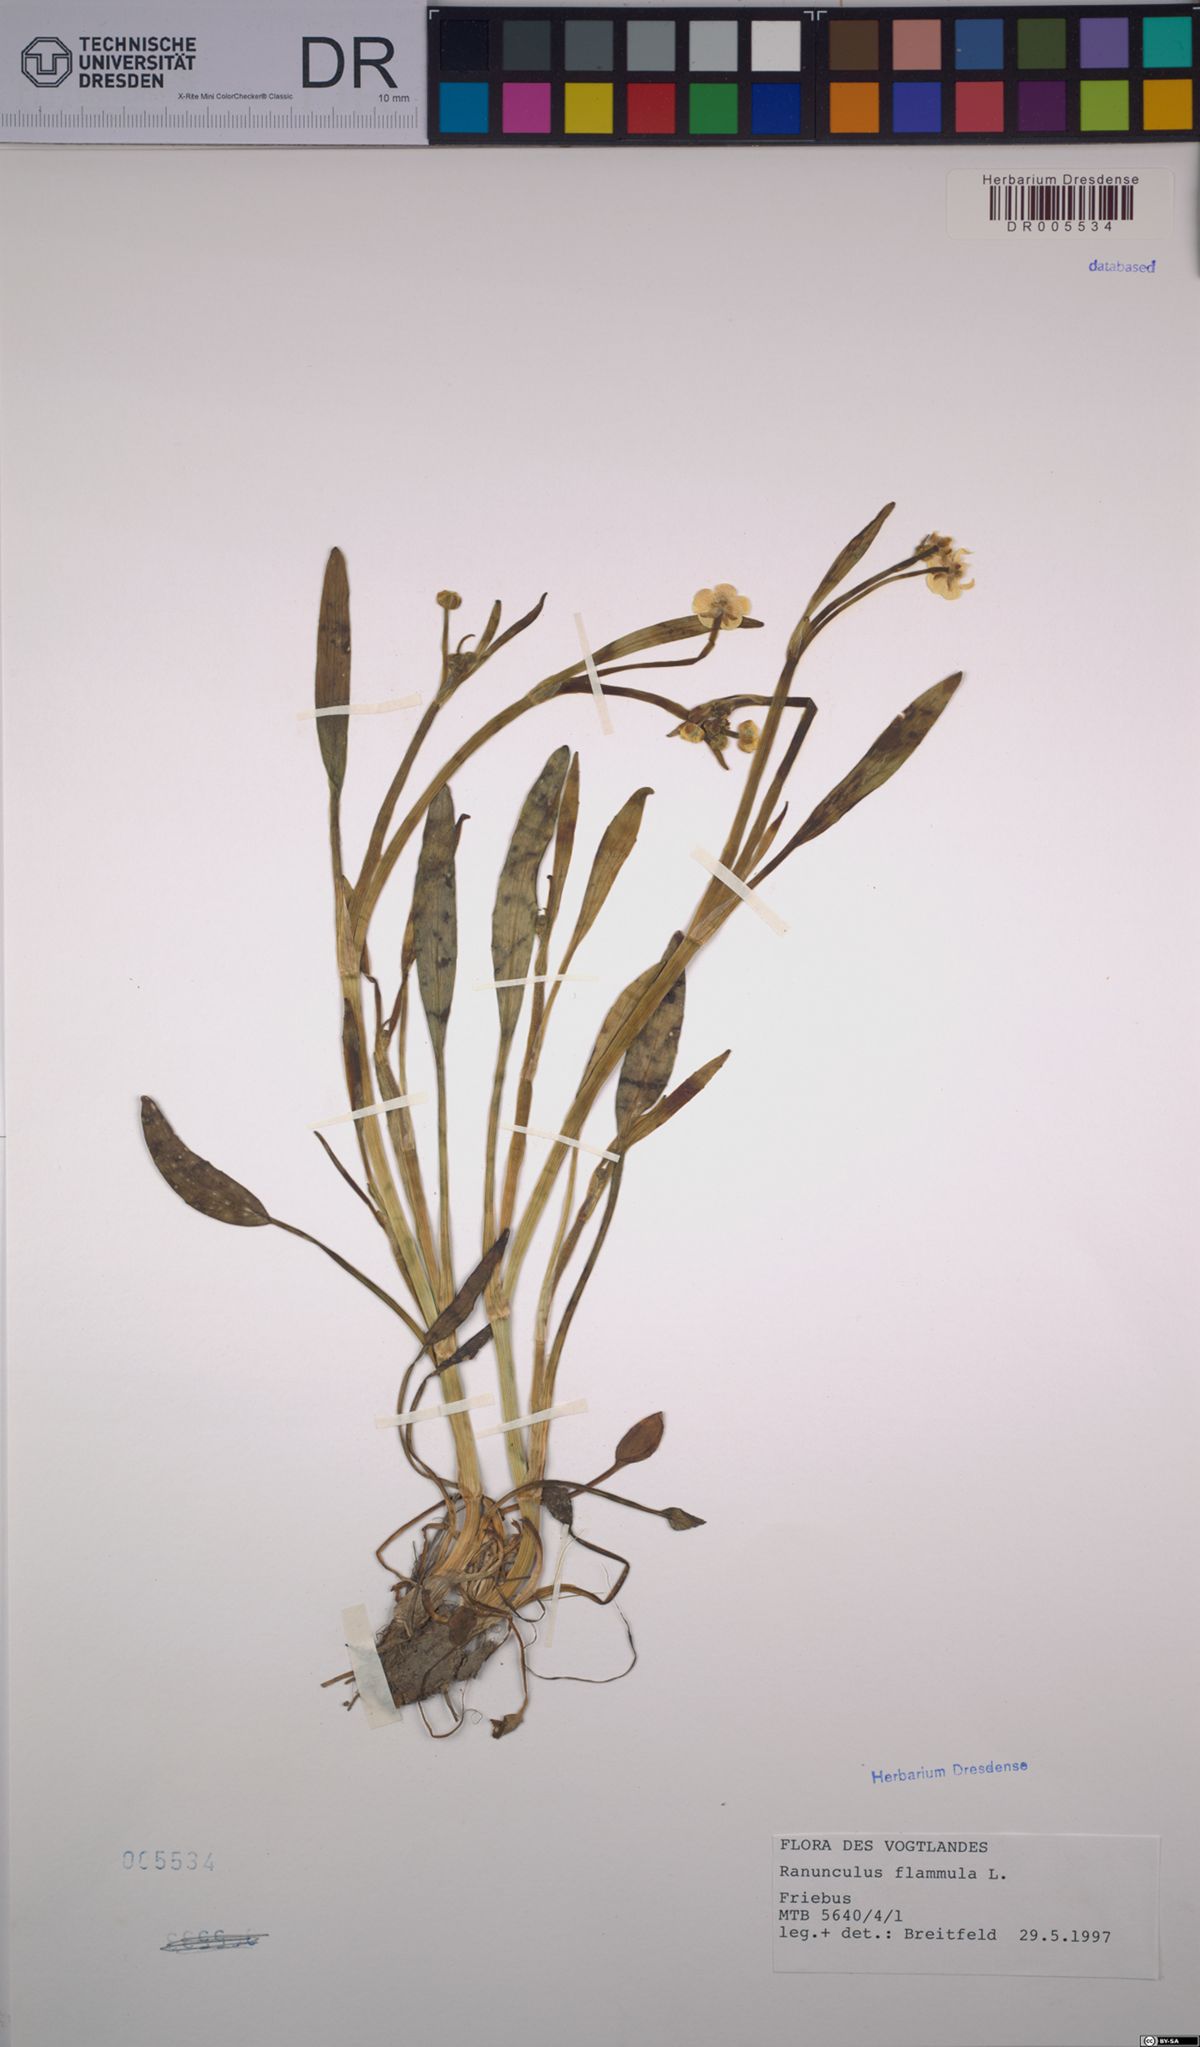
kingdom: Plantae
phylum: Tracheophyta
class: Magnoliopsida
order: Ranunculales
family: Ranunculaceae
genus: Ranunculus
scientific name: Ranunculus flammula
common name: Lesser spearwort
